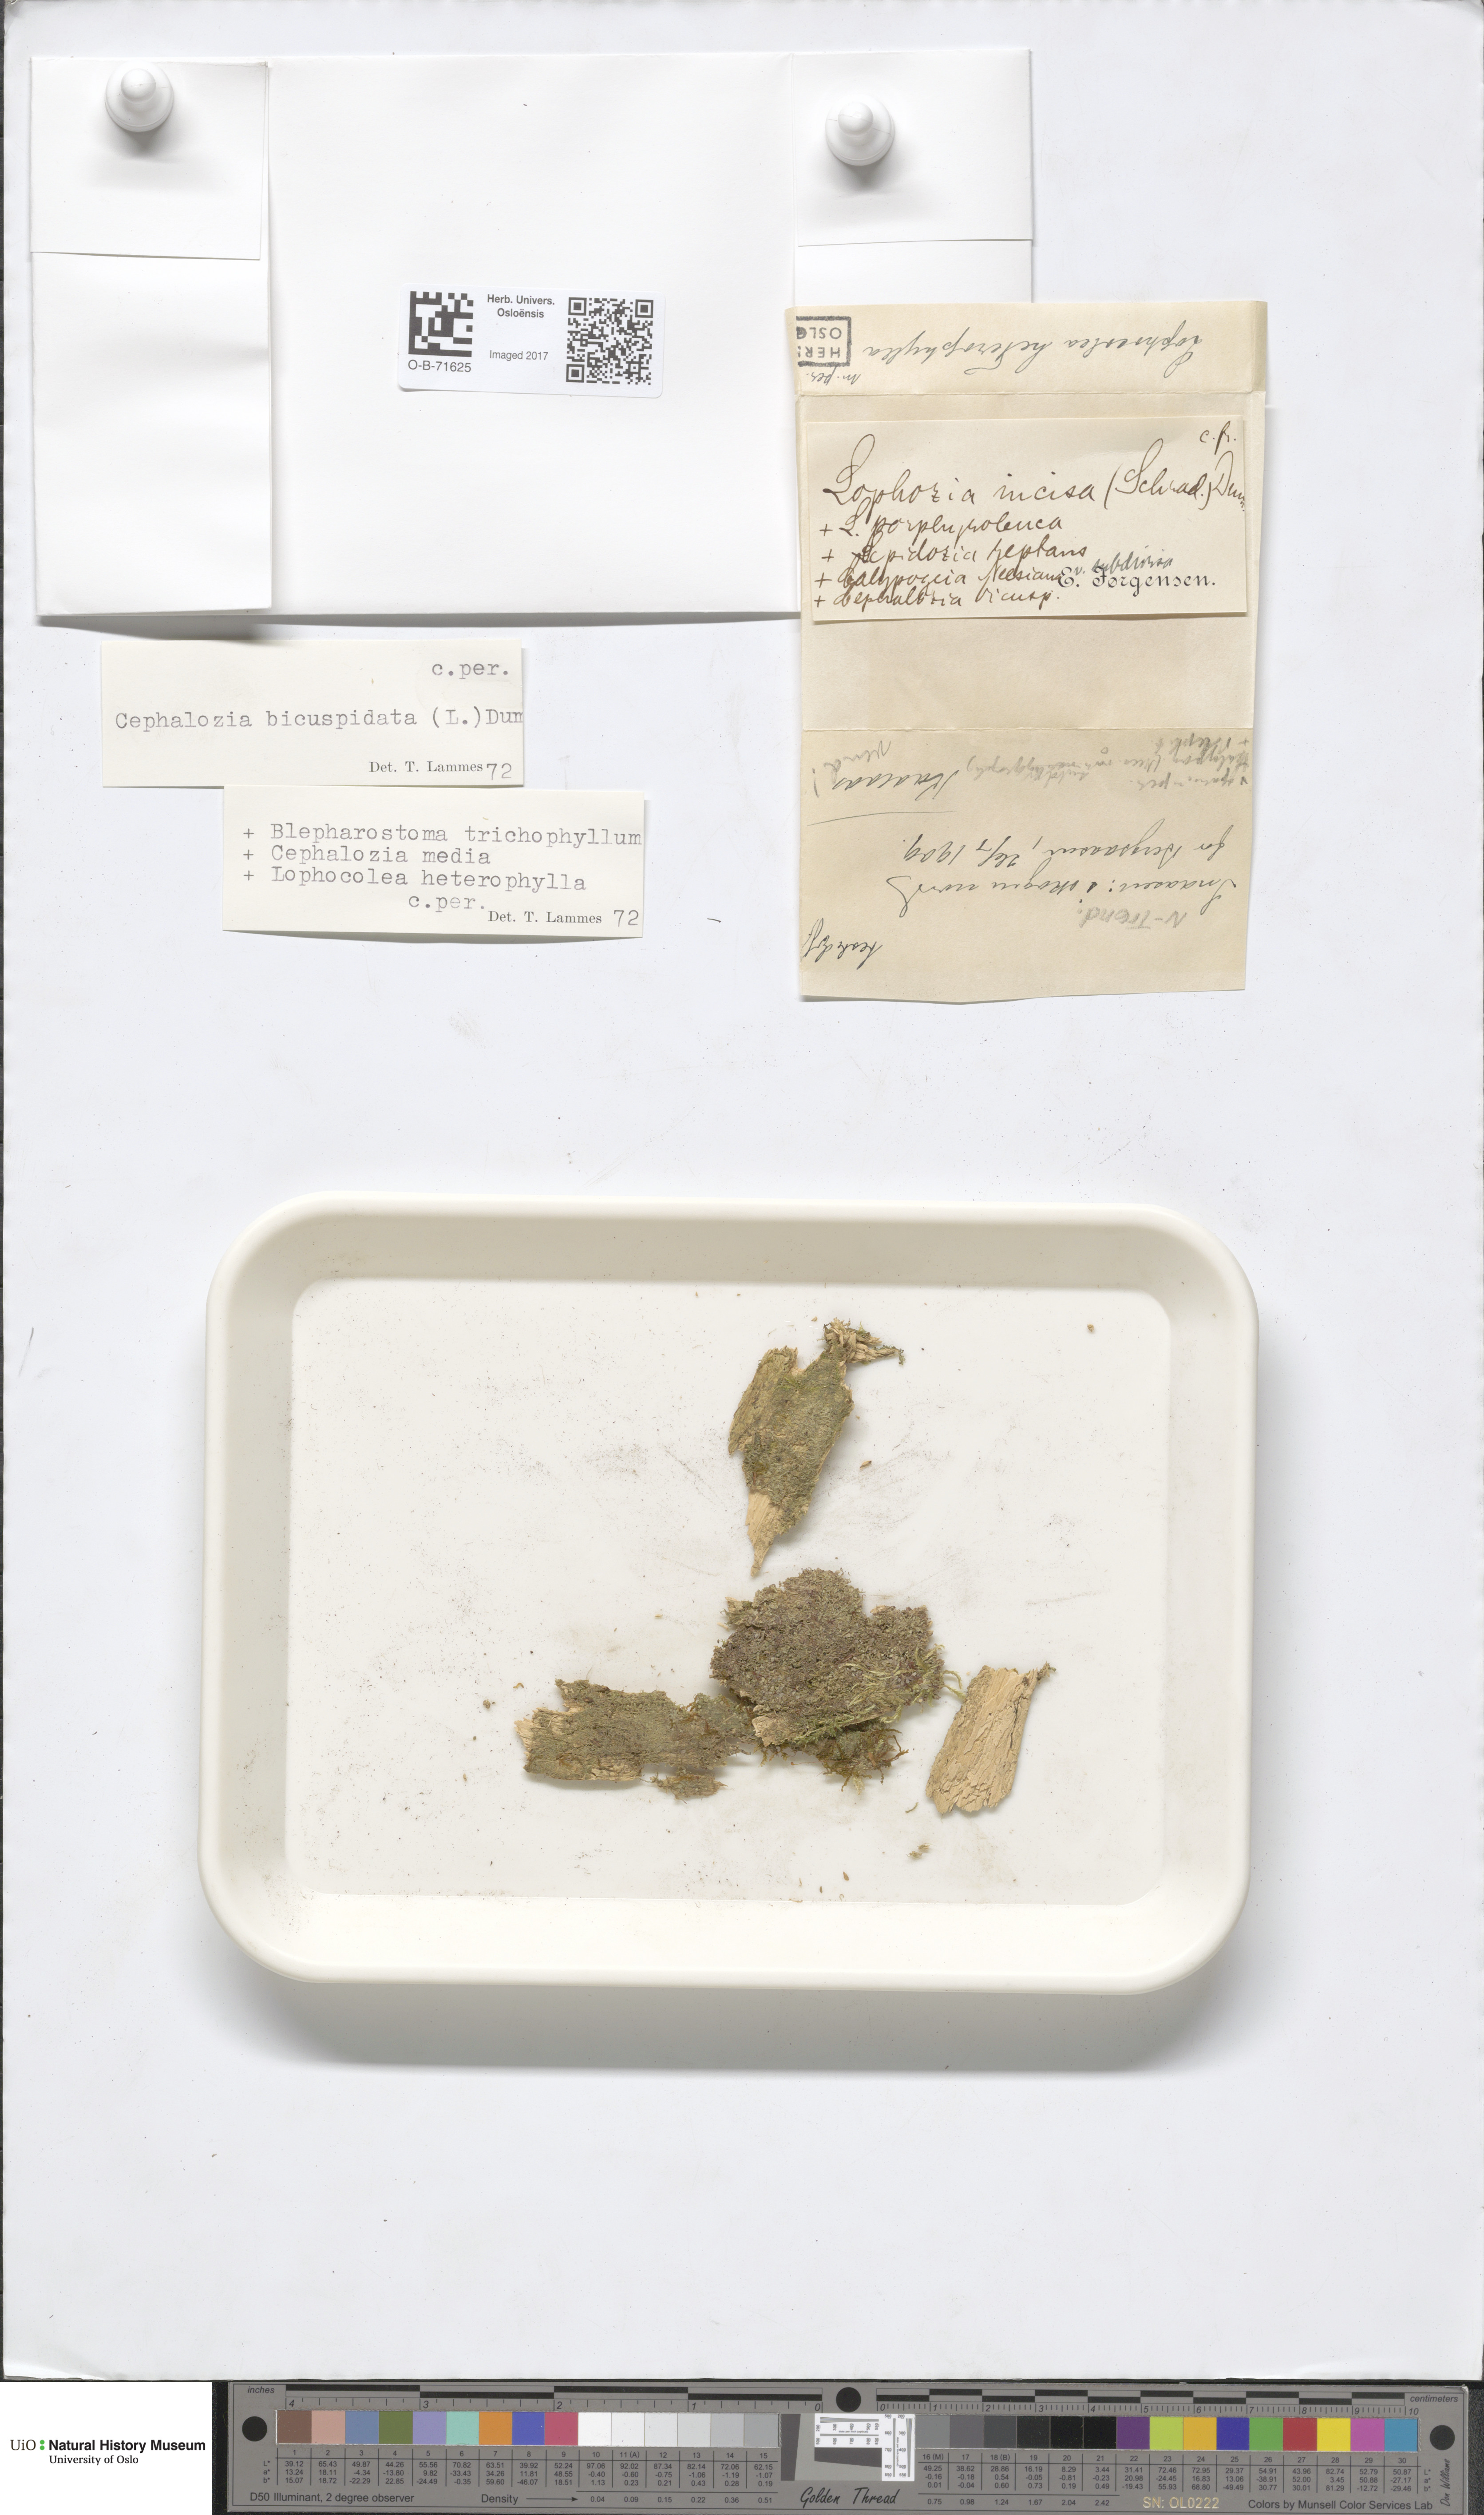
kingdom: Plantae
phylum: Marchantiophyta
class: Jungermanniopsida
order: Jungermanniales
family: Cephaloziaceae
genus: Cephalozia
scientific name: Cephalozia bicuspidata
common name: Two-horned pincerwort
